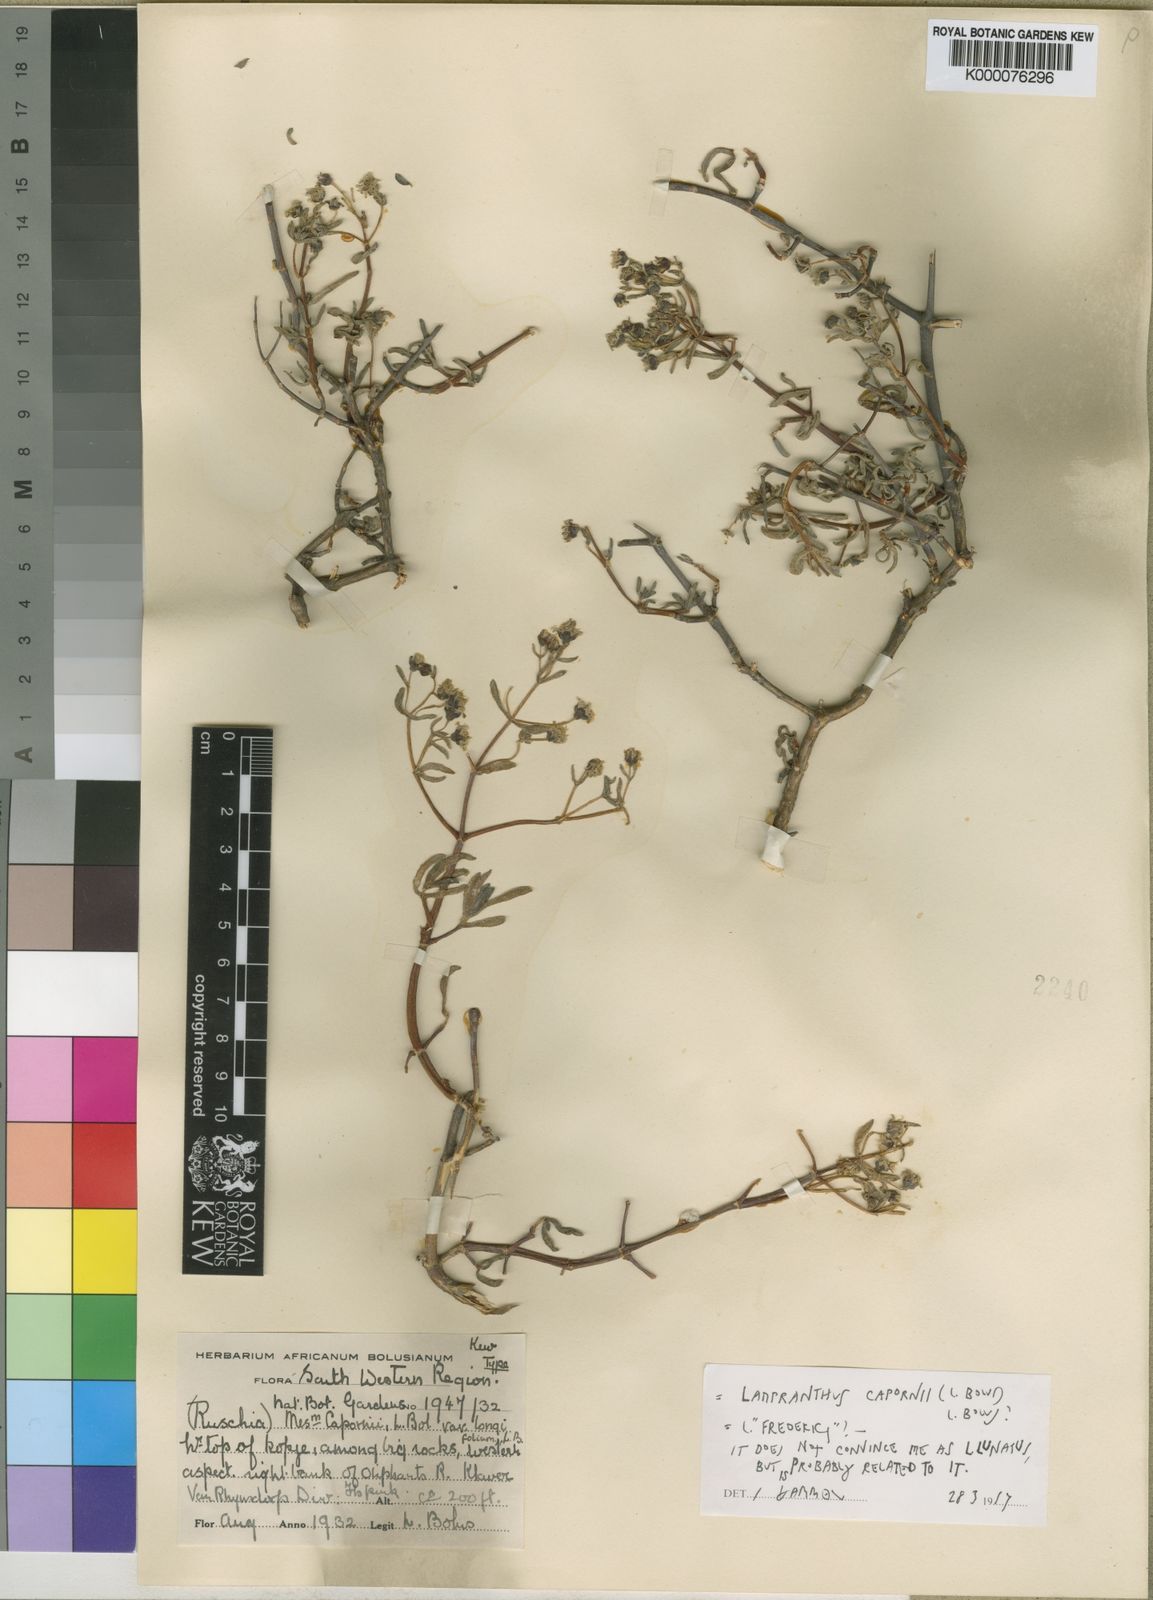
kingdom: Plantae
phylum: Tracheophyta
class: Magnoliopsida
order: Caryophyllales
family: Aizoaceae
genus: Ruschia
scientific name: Ruschia capornii
